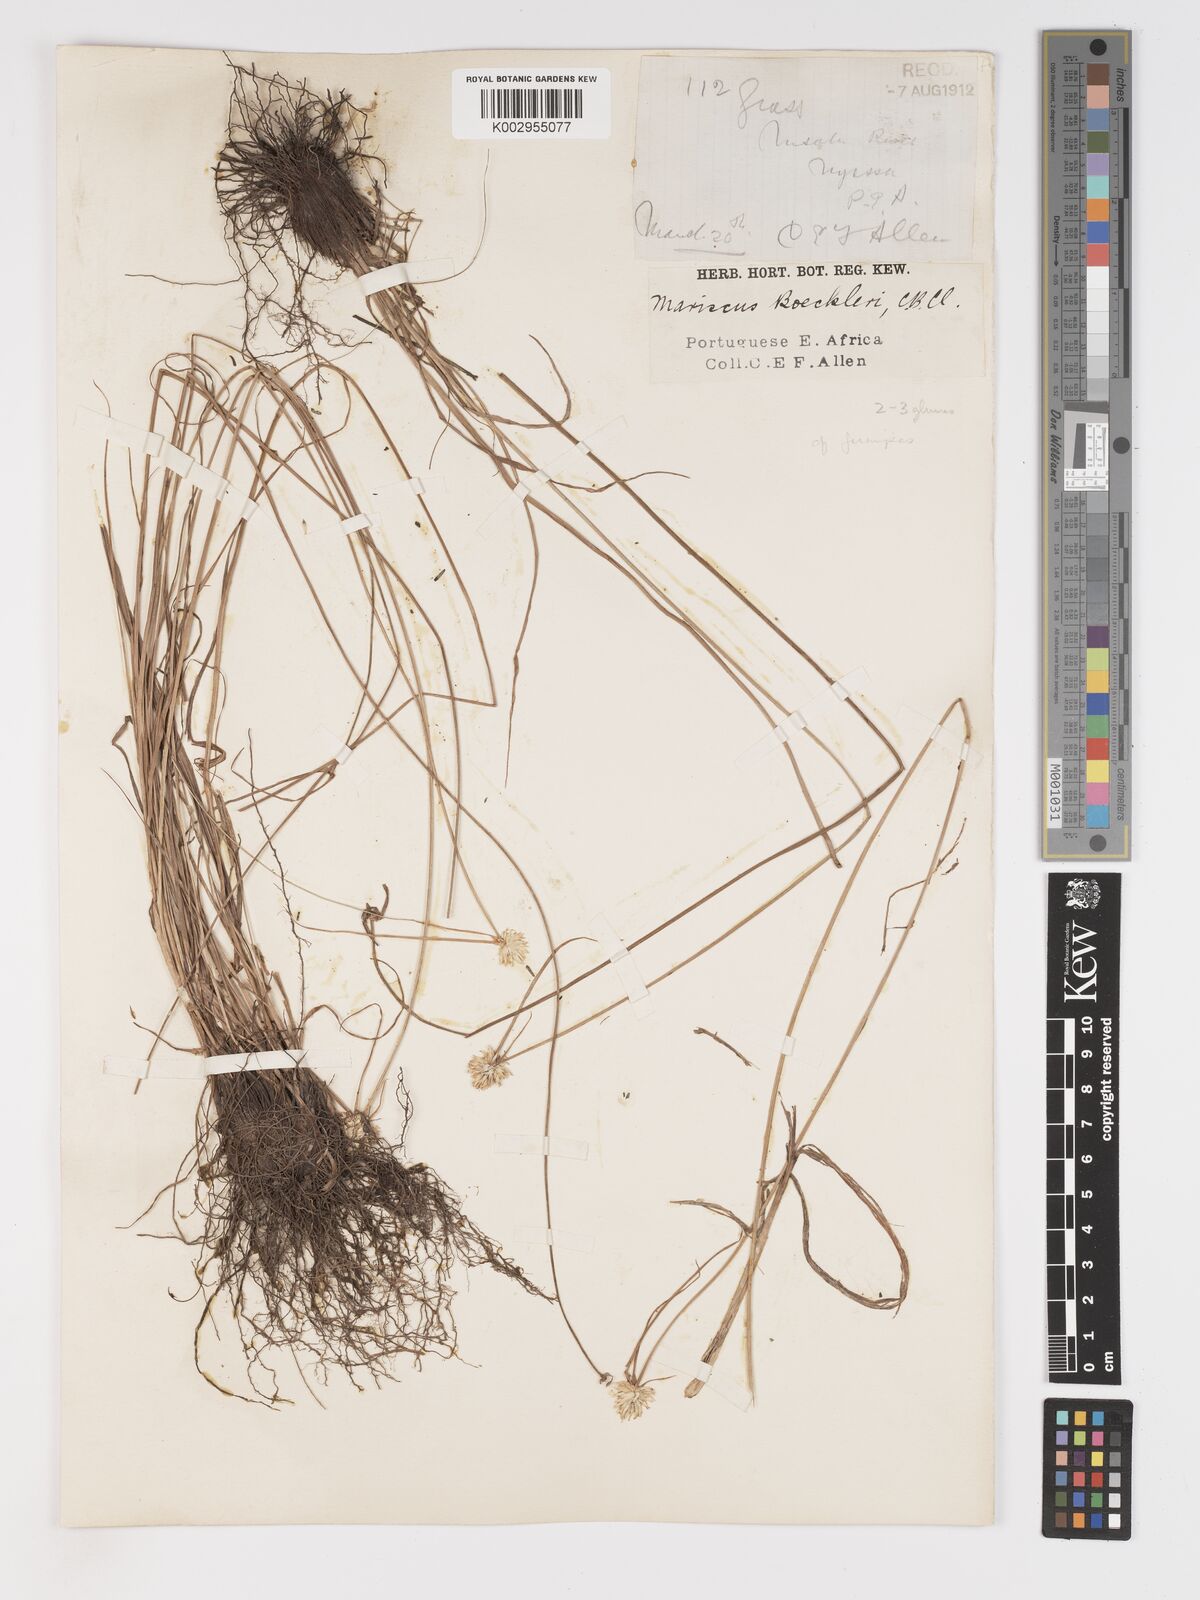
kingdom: Plantae
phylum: Tracheophyta
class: Liliopsida
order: Poales
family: Cyperaceae
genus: Cyperus
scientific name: Cyperus mollipes
